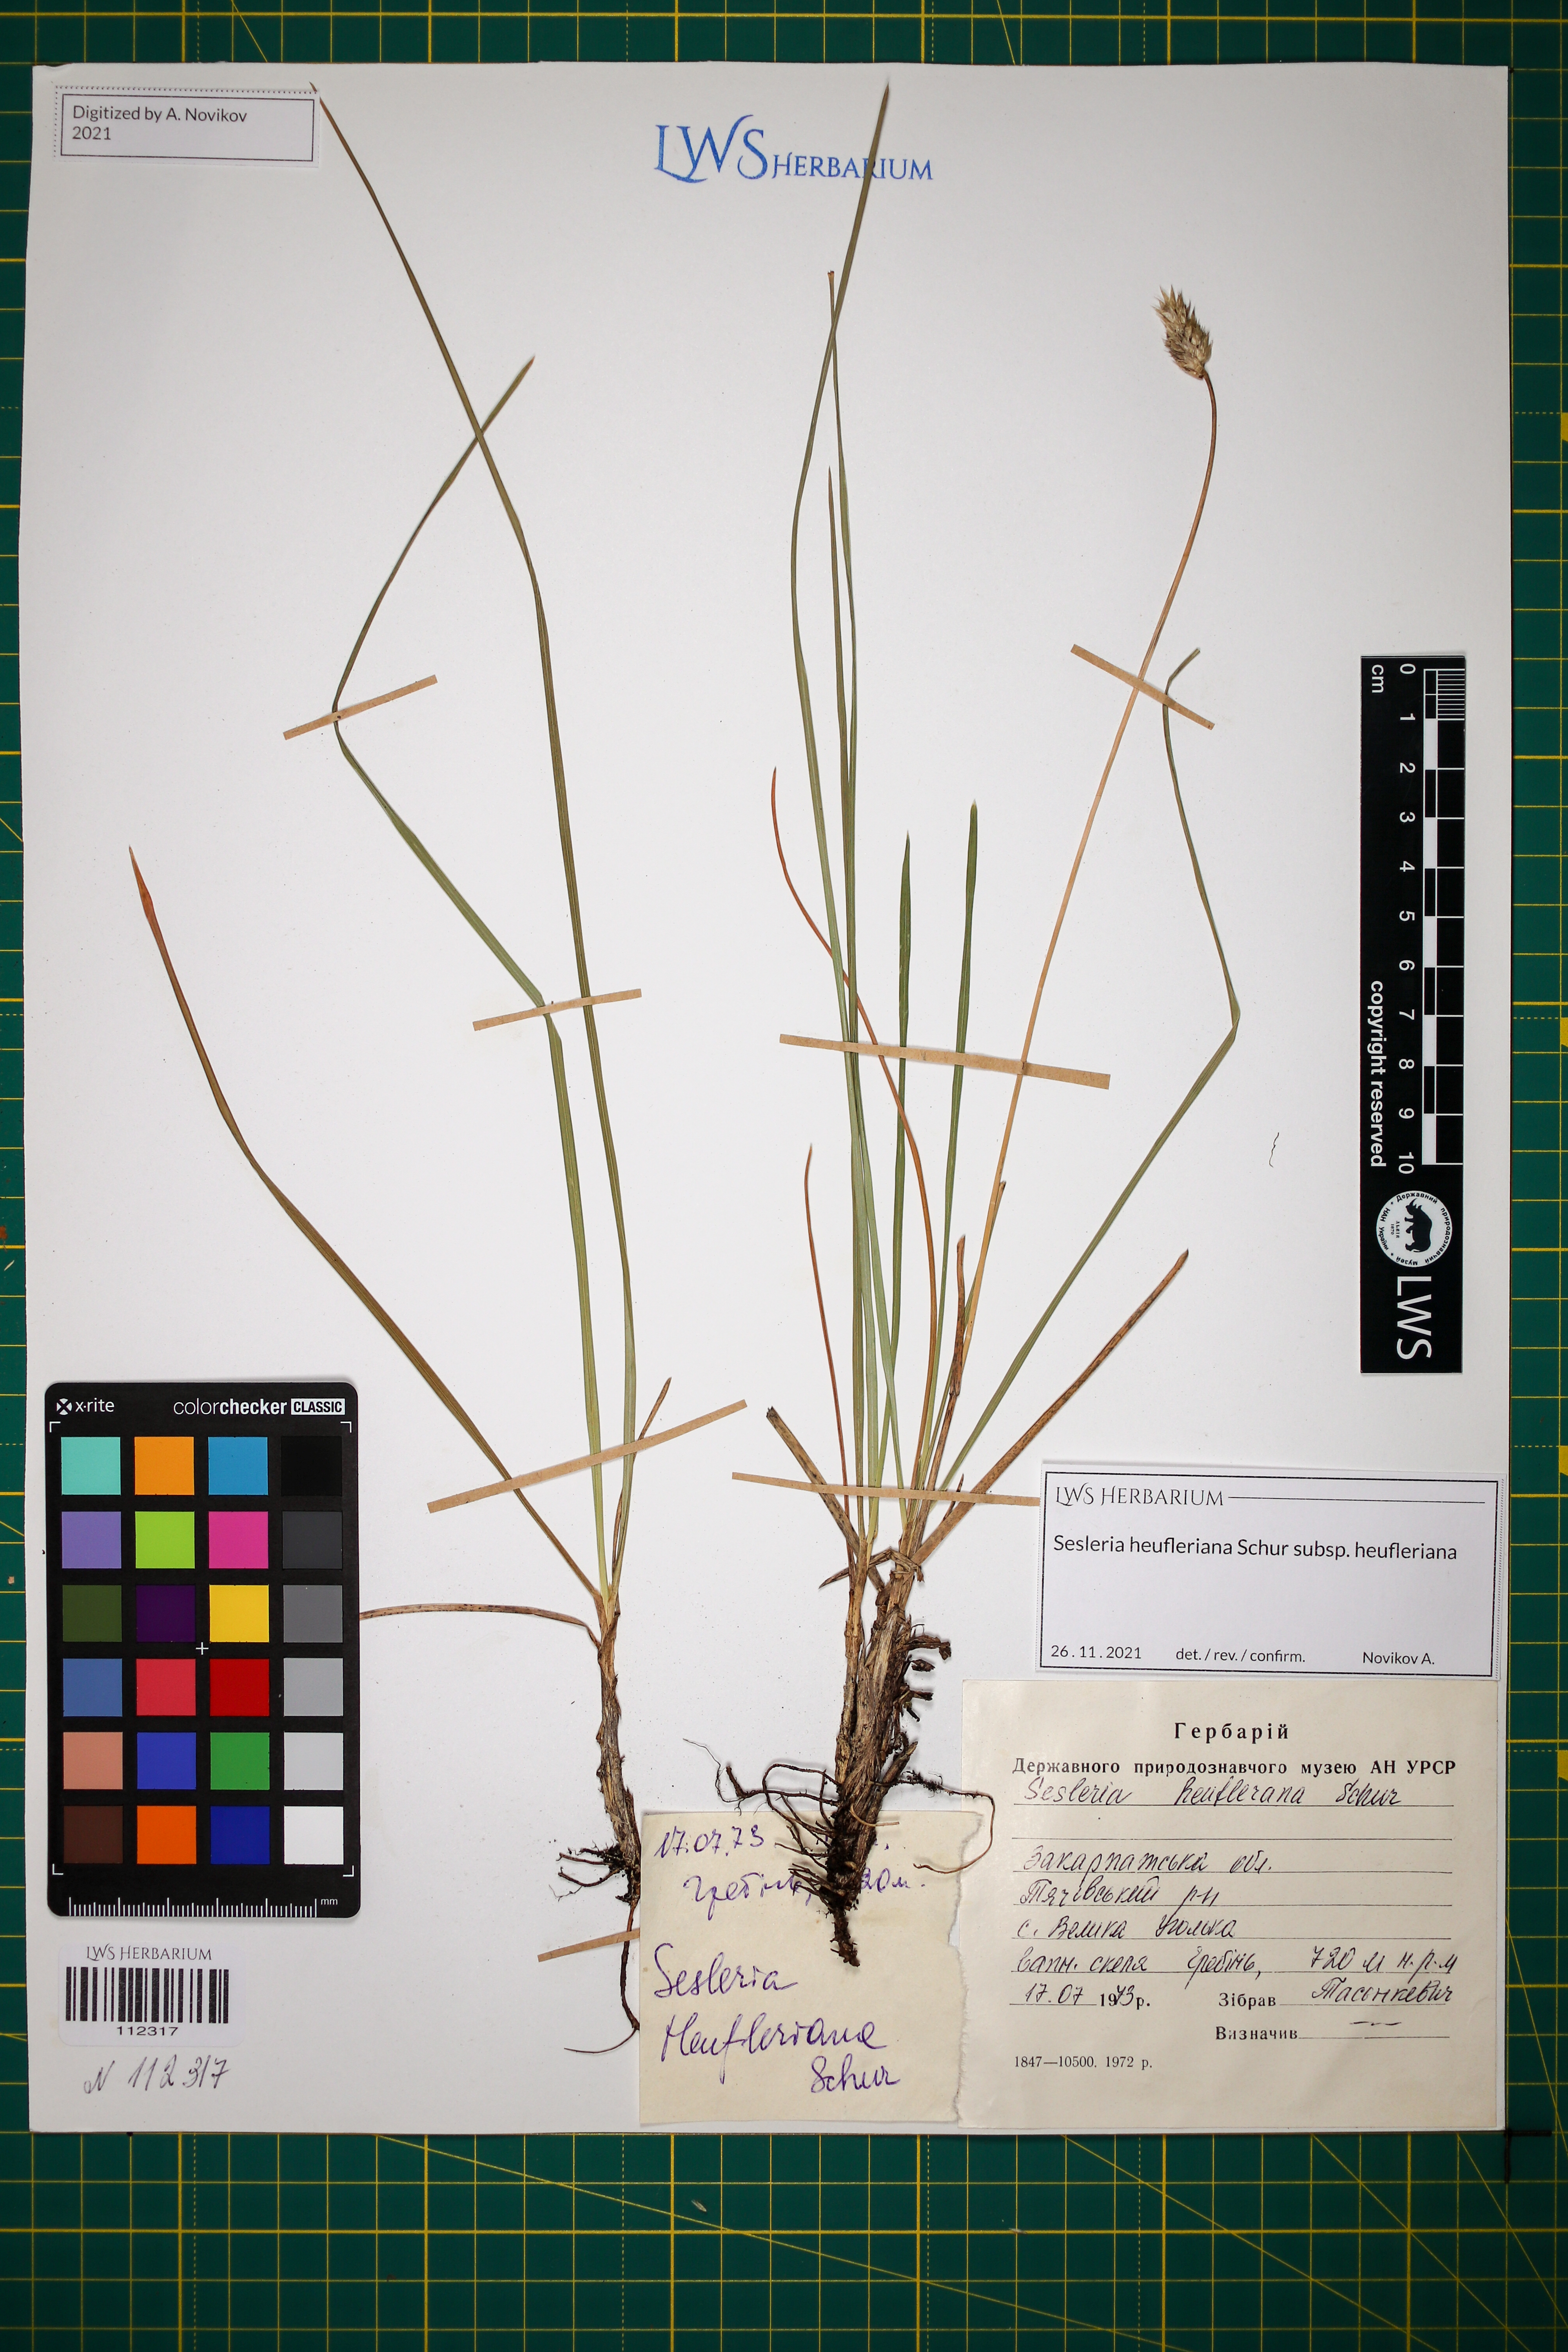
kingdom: Plantae
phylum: Tracheophyta
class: Liliopsida
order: Poales
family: Poaceae
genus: Sesleria
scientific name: Sesleria heufleriana
